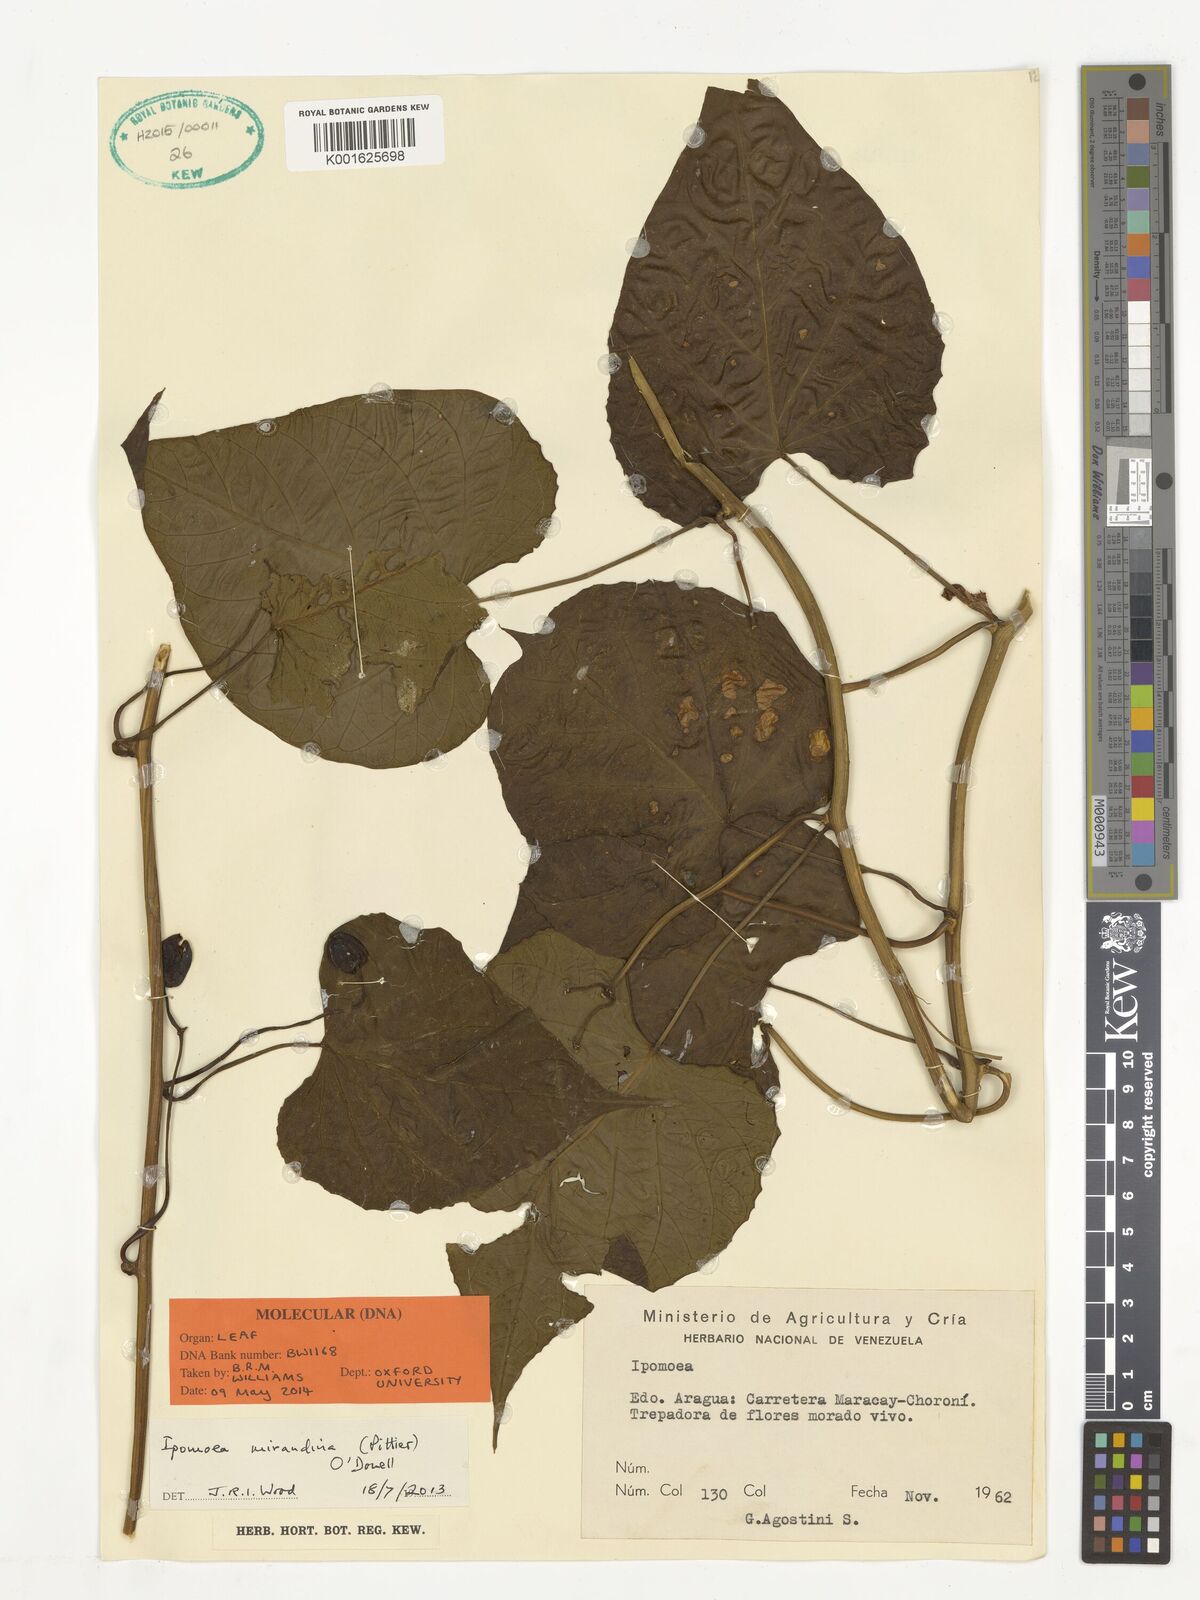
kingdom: Plantae
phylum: Tracheophyta
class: Magnoliopsida
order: Solanales
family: Convolvulaceae
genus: Ipomoea
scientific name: Ipomoea mirandina
